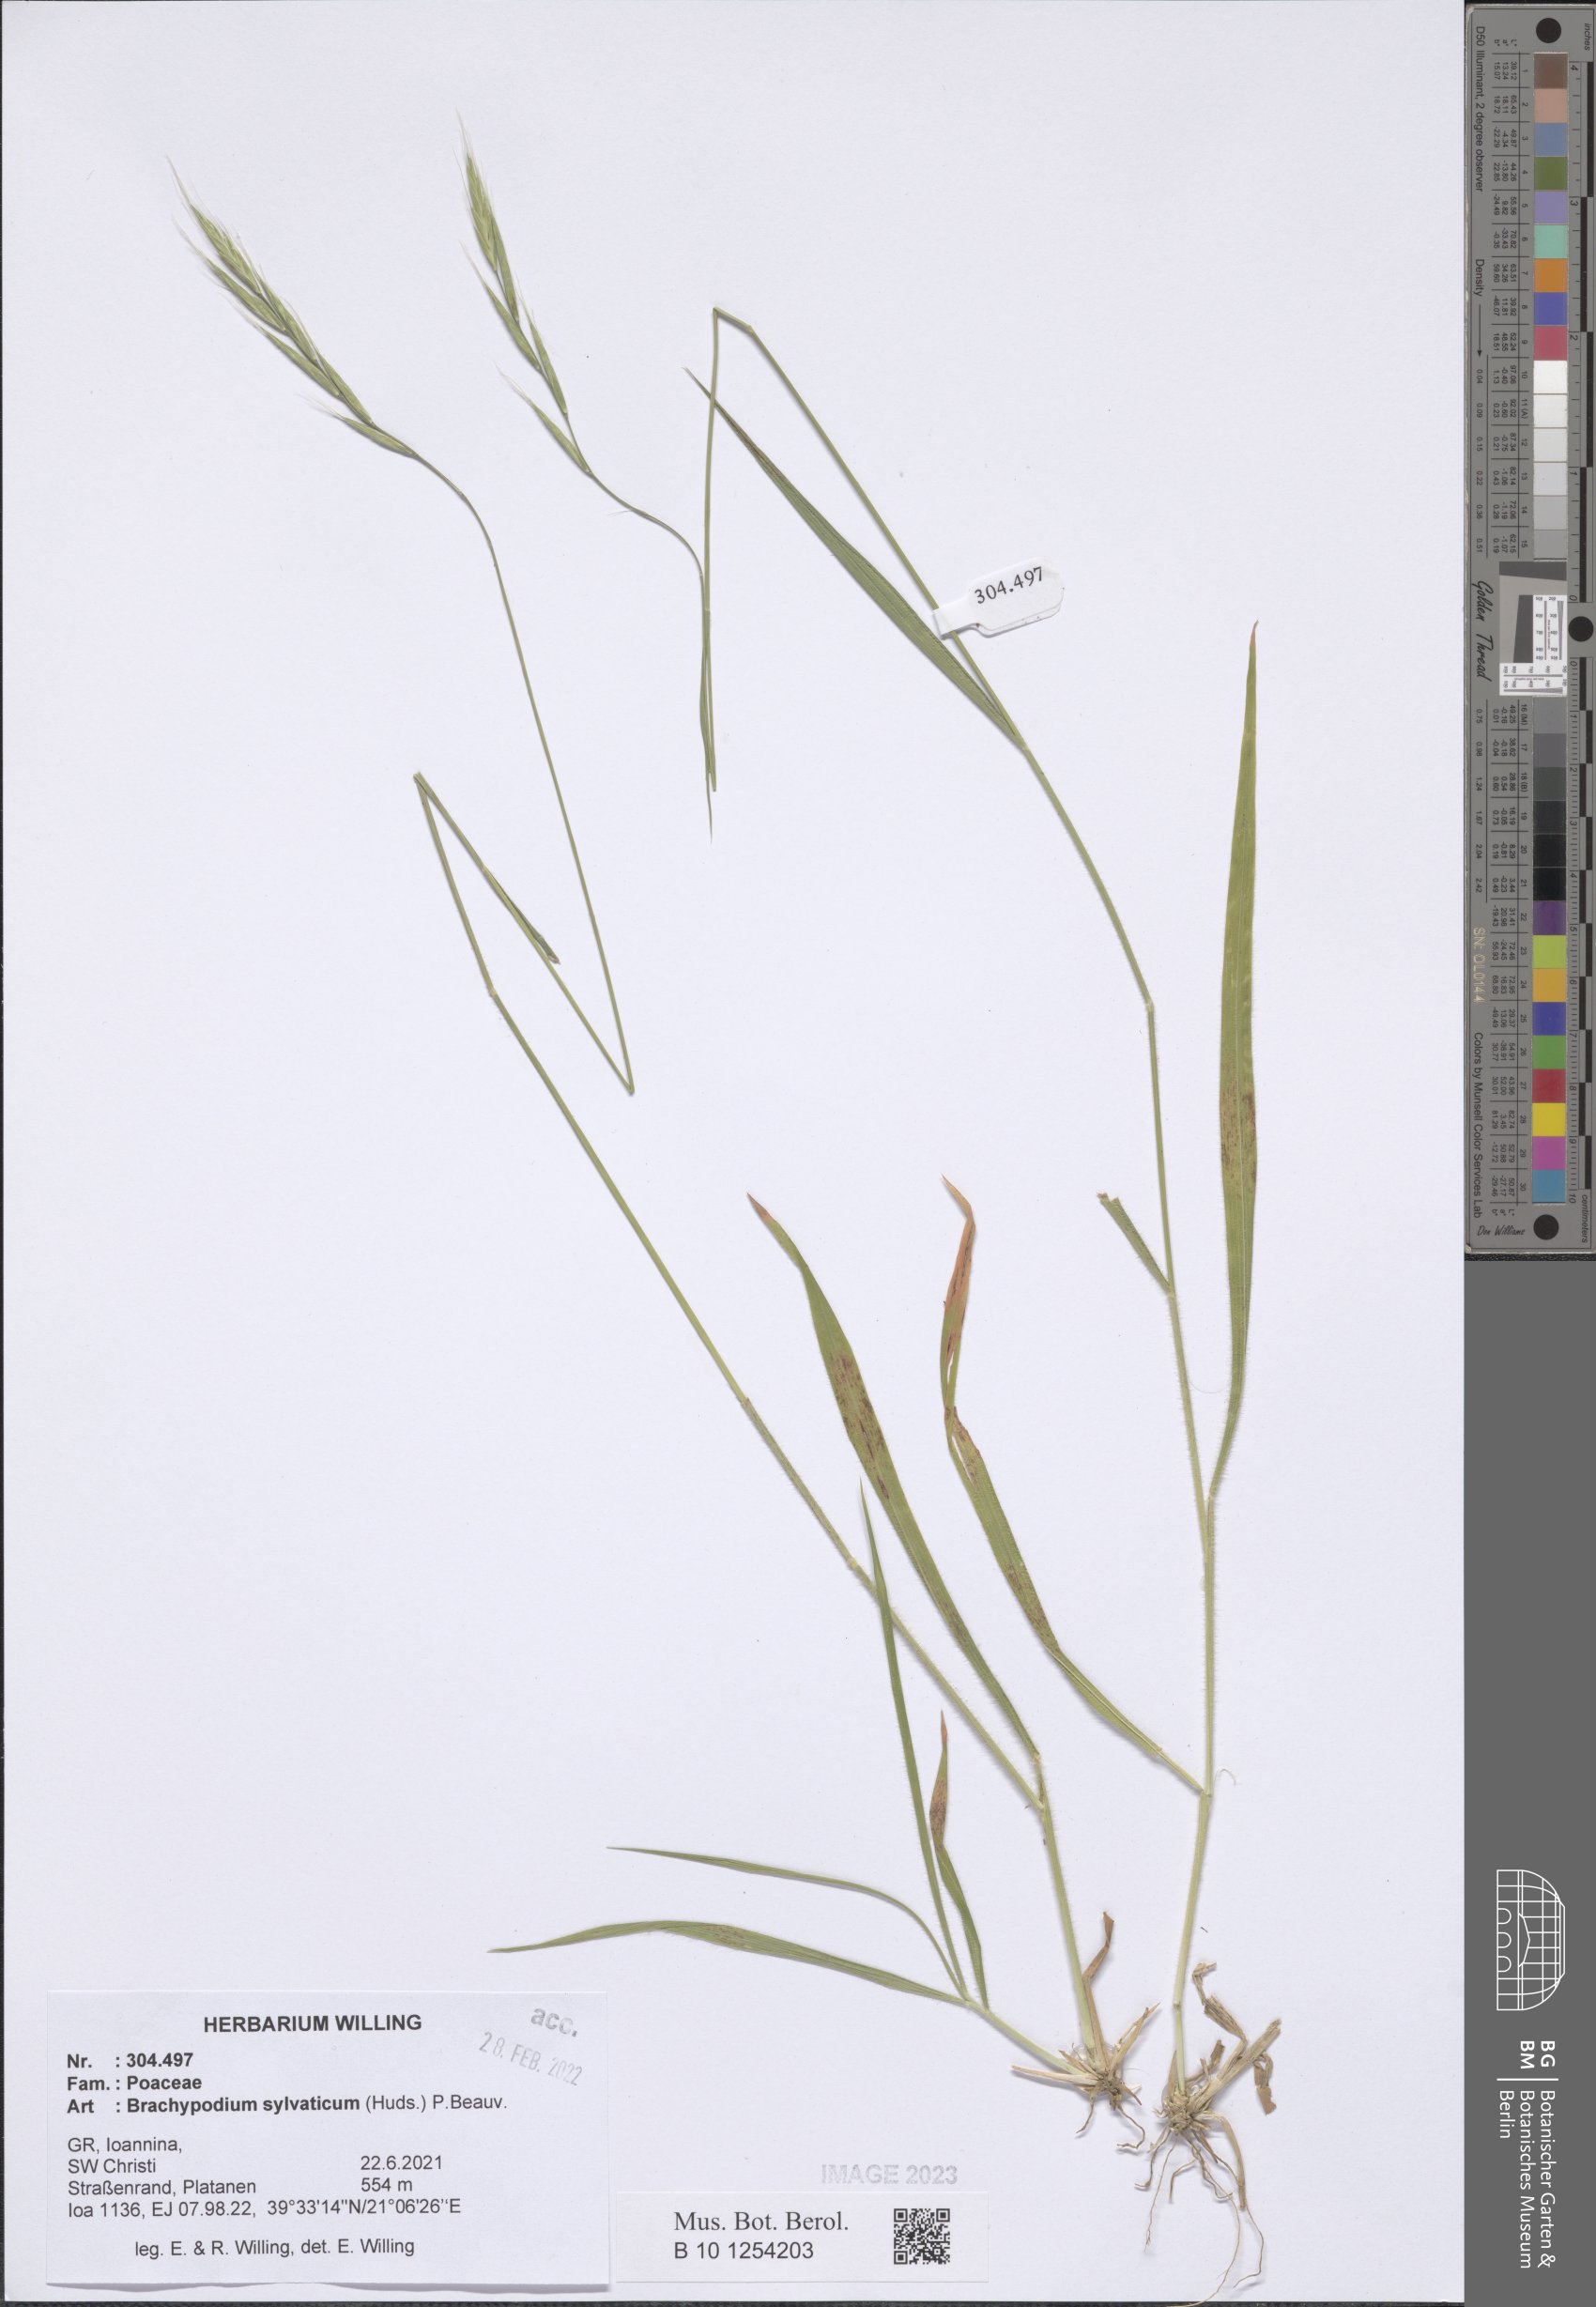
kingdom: Plantae
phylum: Tracheophyta
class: Liliopsida
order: Poales
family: Poaceae
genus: Brachypodium
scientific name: Brachypodium sylvaticum
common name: False-brome
